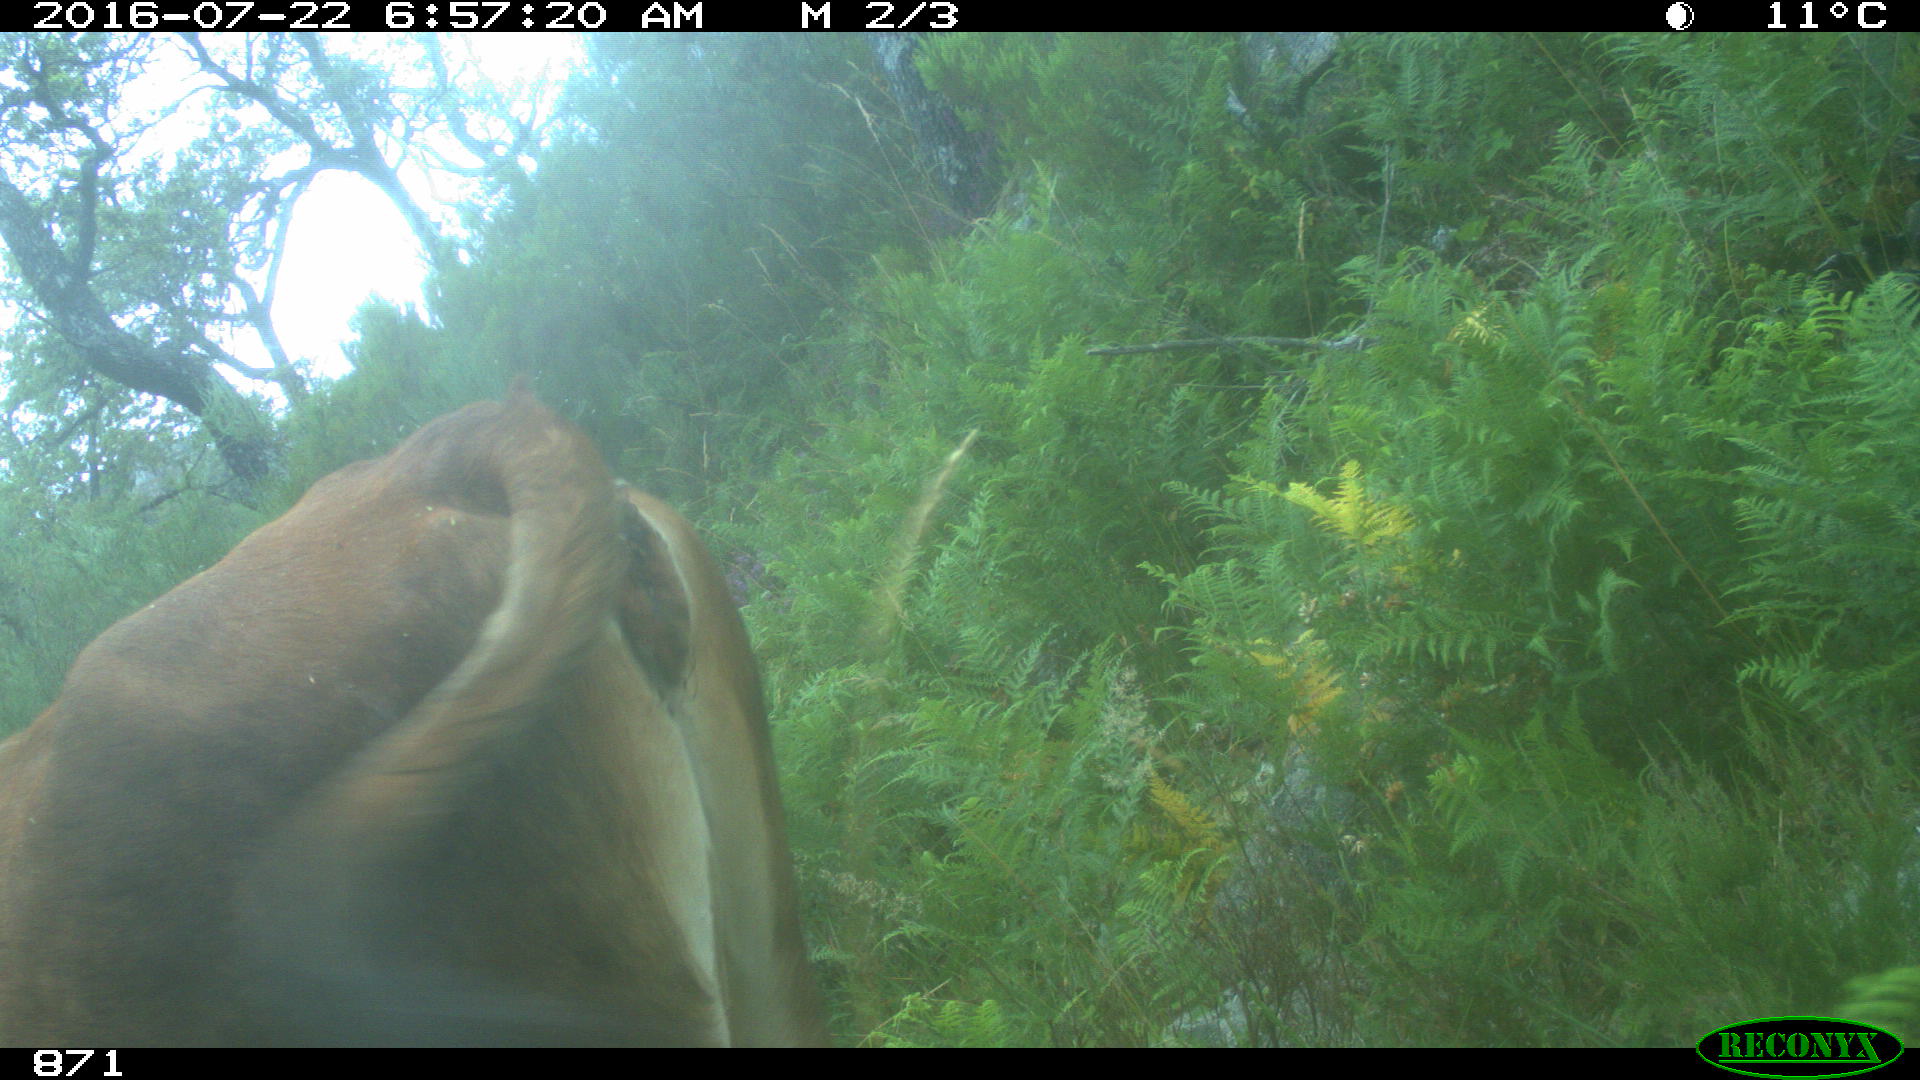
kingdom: Animalia
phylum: Chordata
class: Mammalia
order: Artiodactyla
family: Bovidae
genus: Bos
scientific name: Bos taurus
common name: Domesticated cattle
